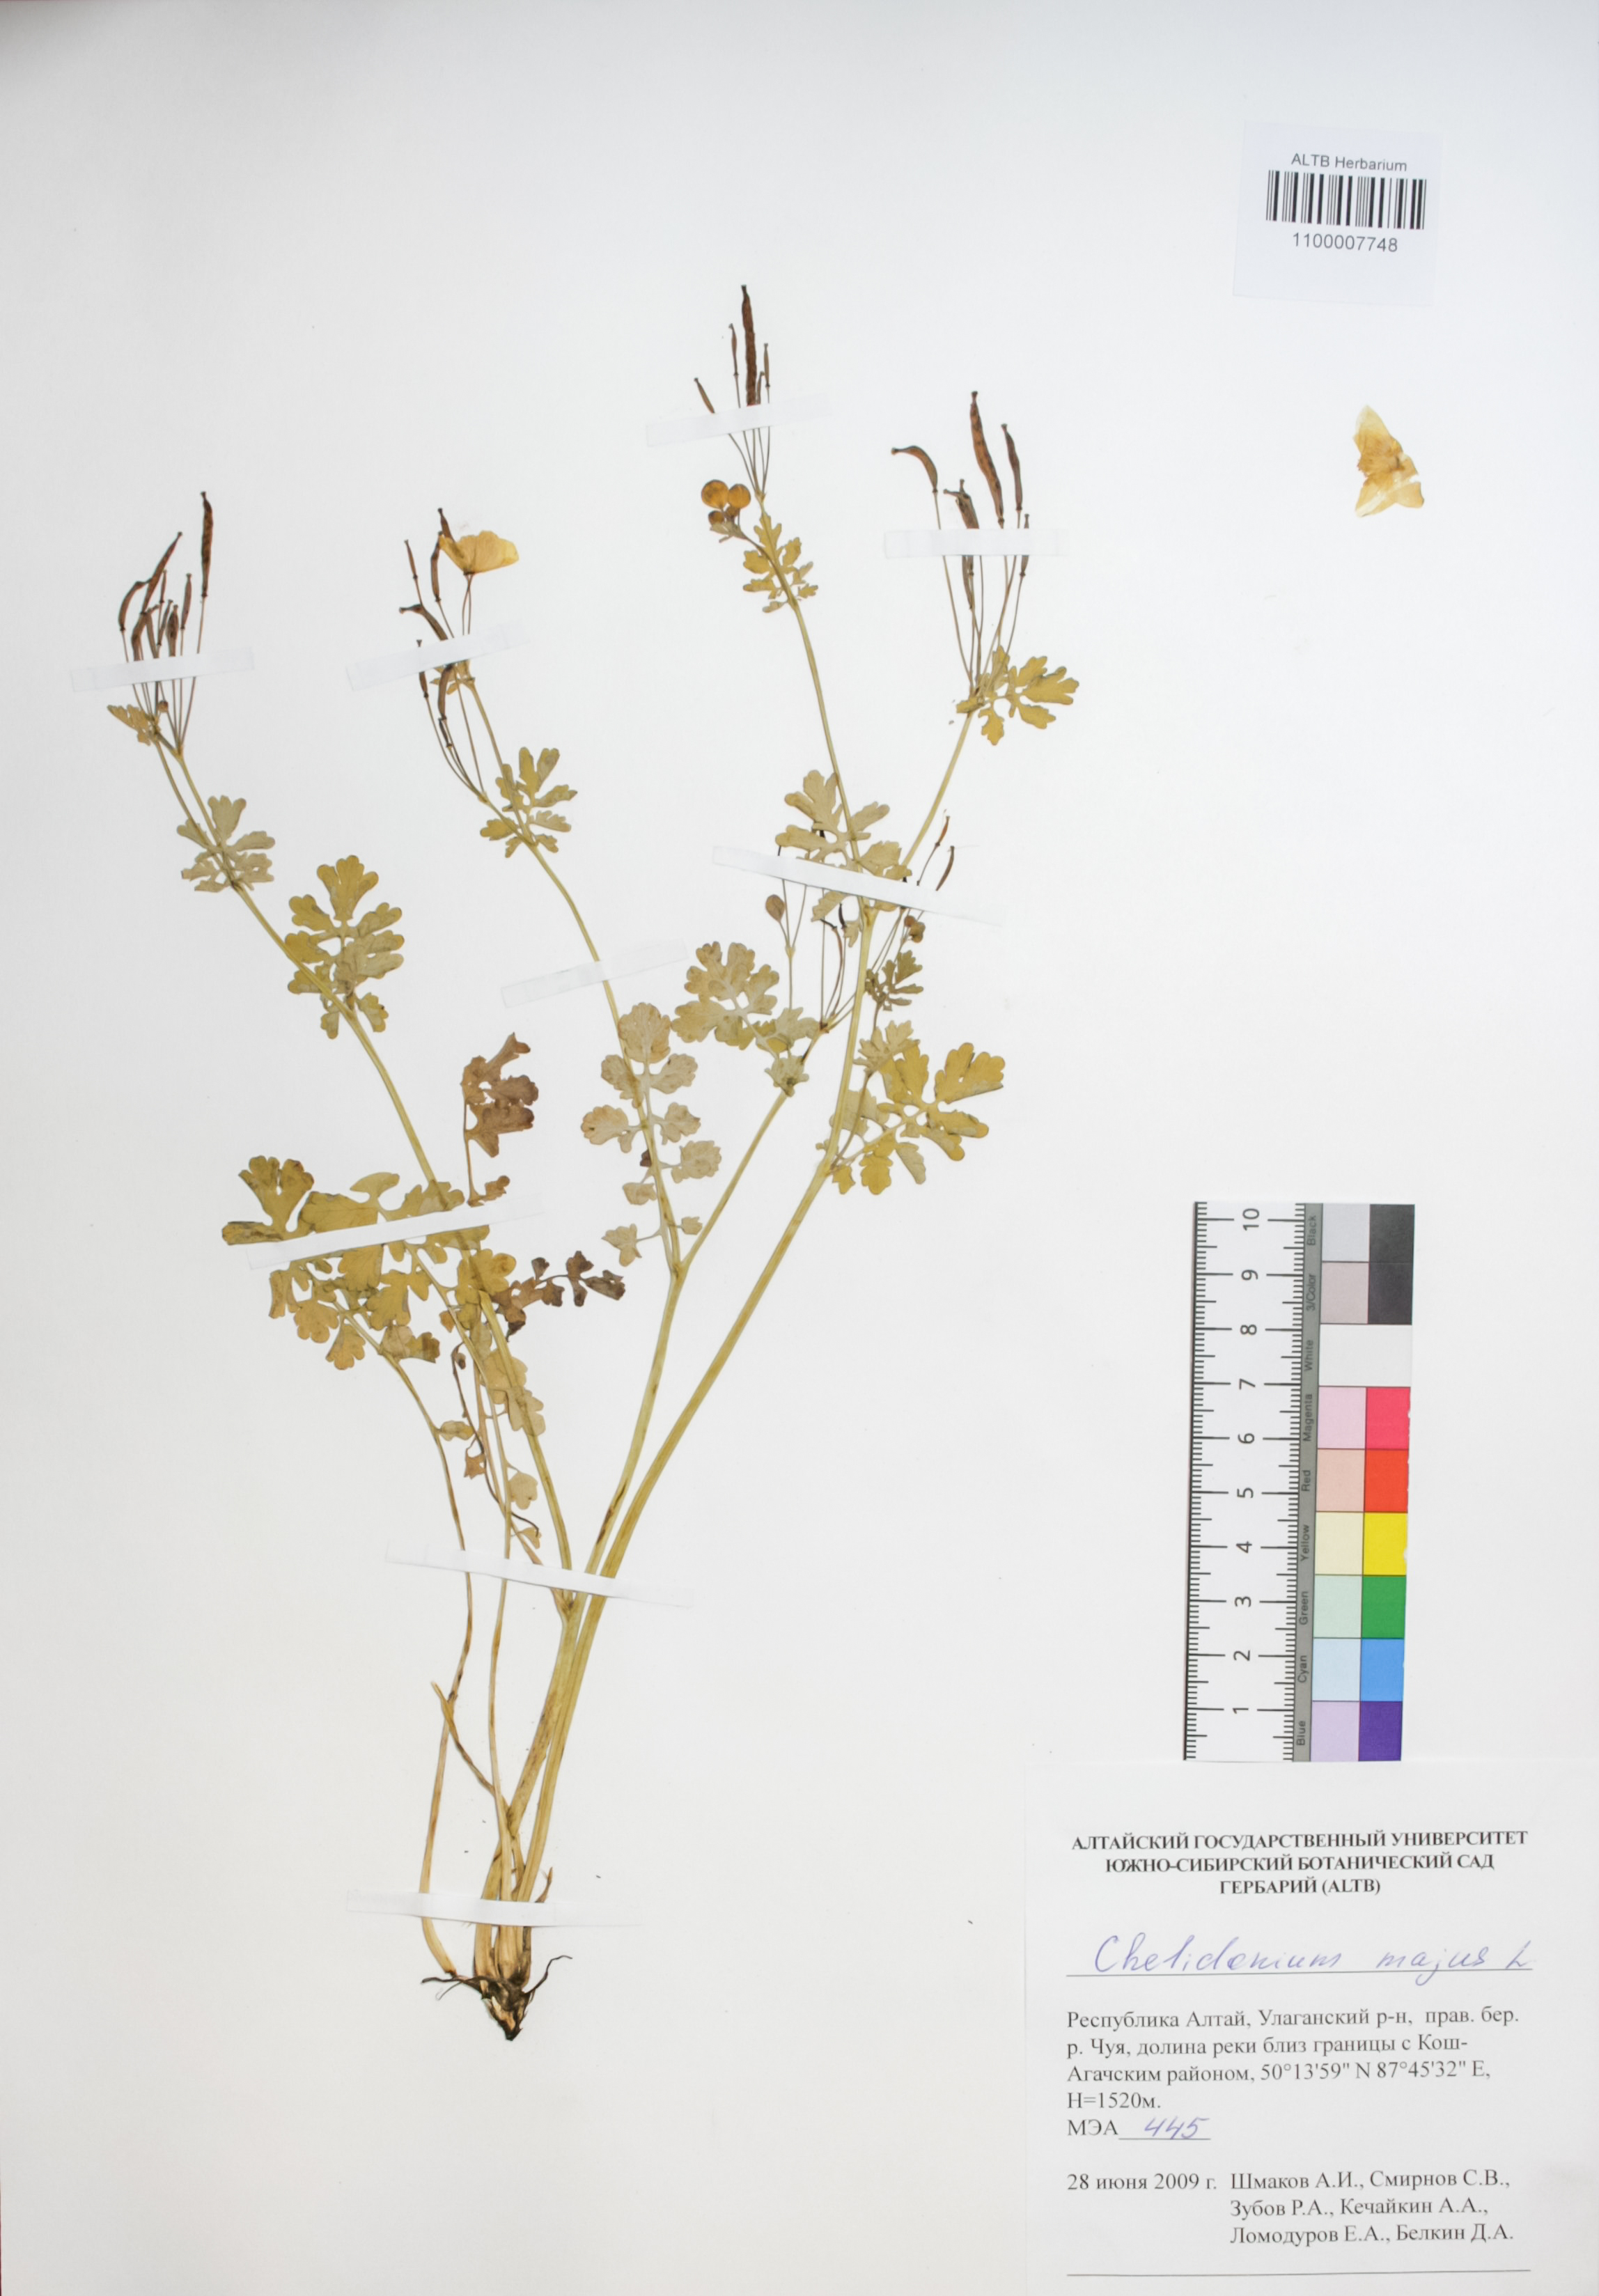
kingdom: Plantae
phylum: Tracheophyta
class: Magnoliopsida
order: Ranunculales
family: Papaveraceae
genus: Chelidonium
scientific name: Chelidonium majus
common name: Greater celandine
